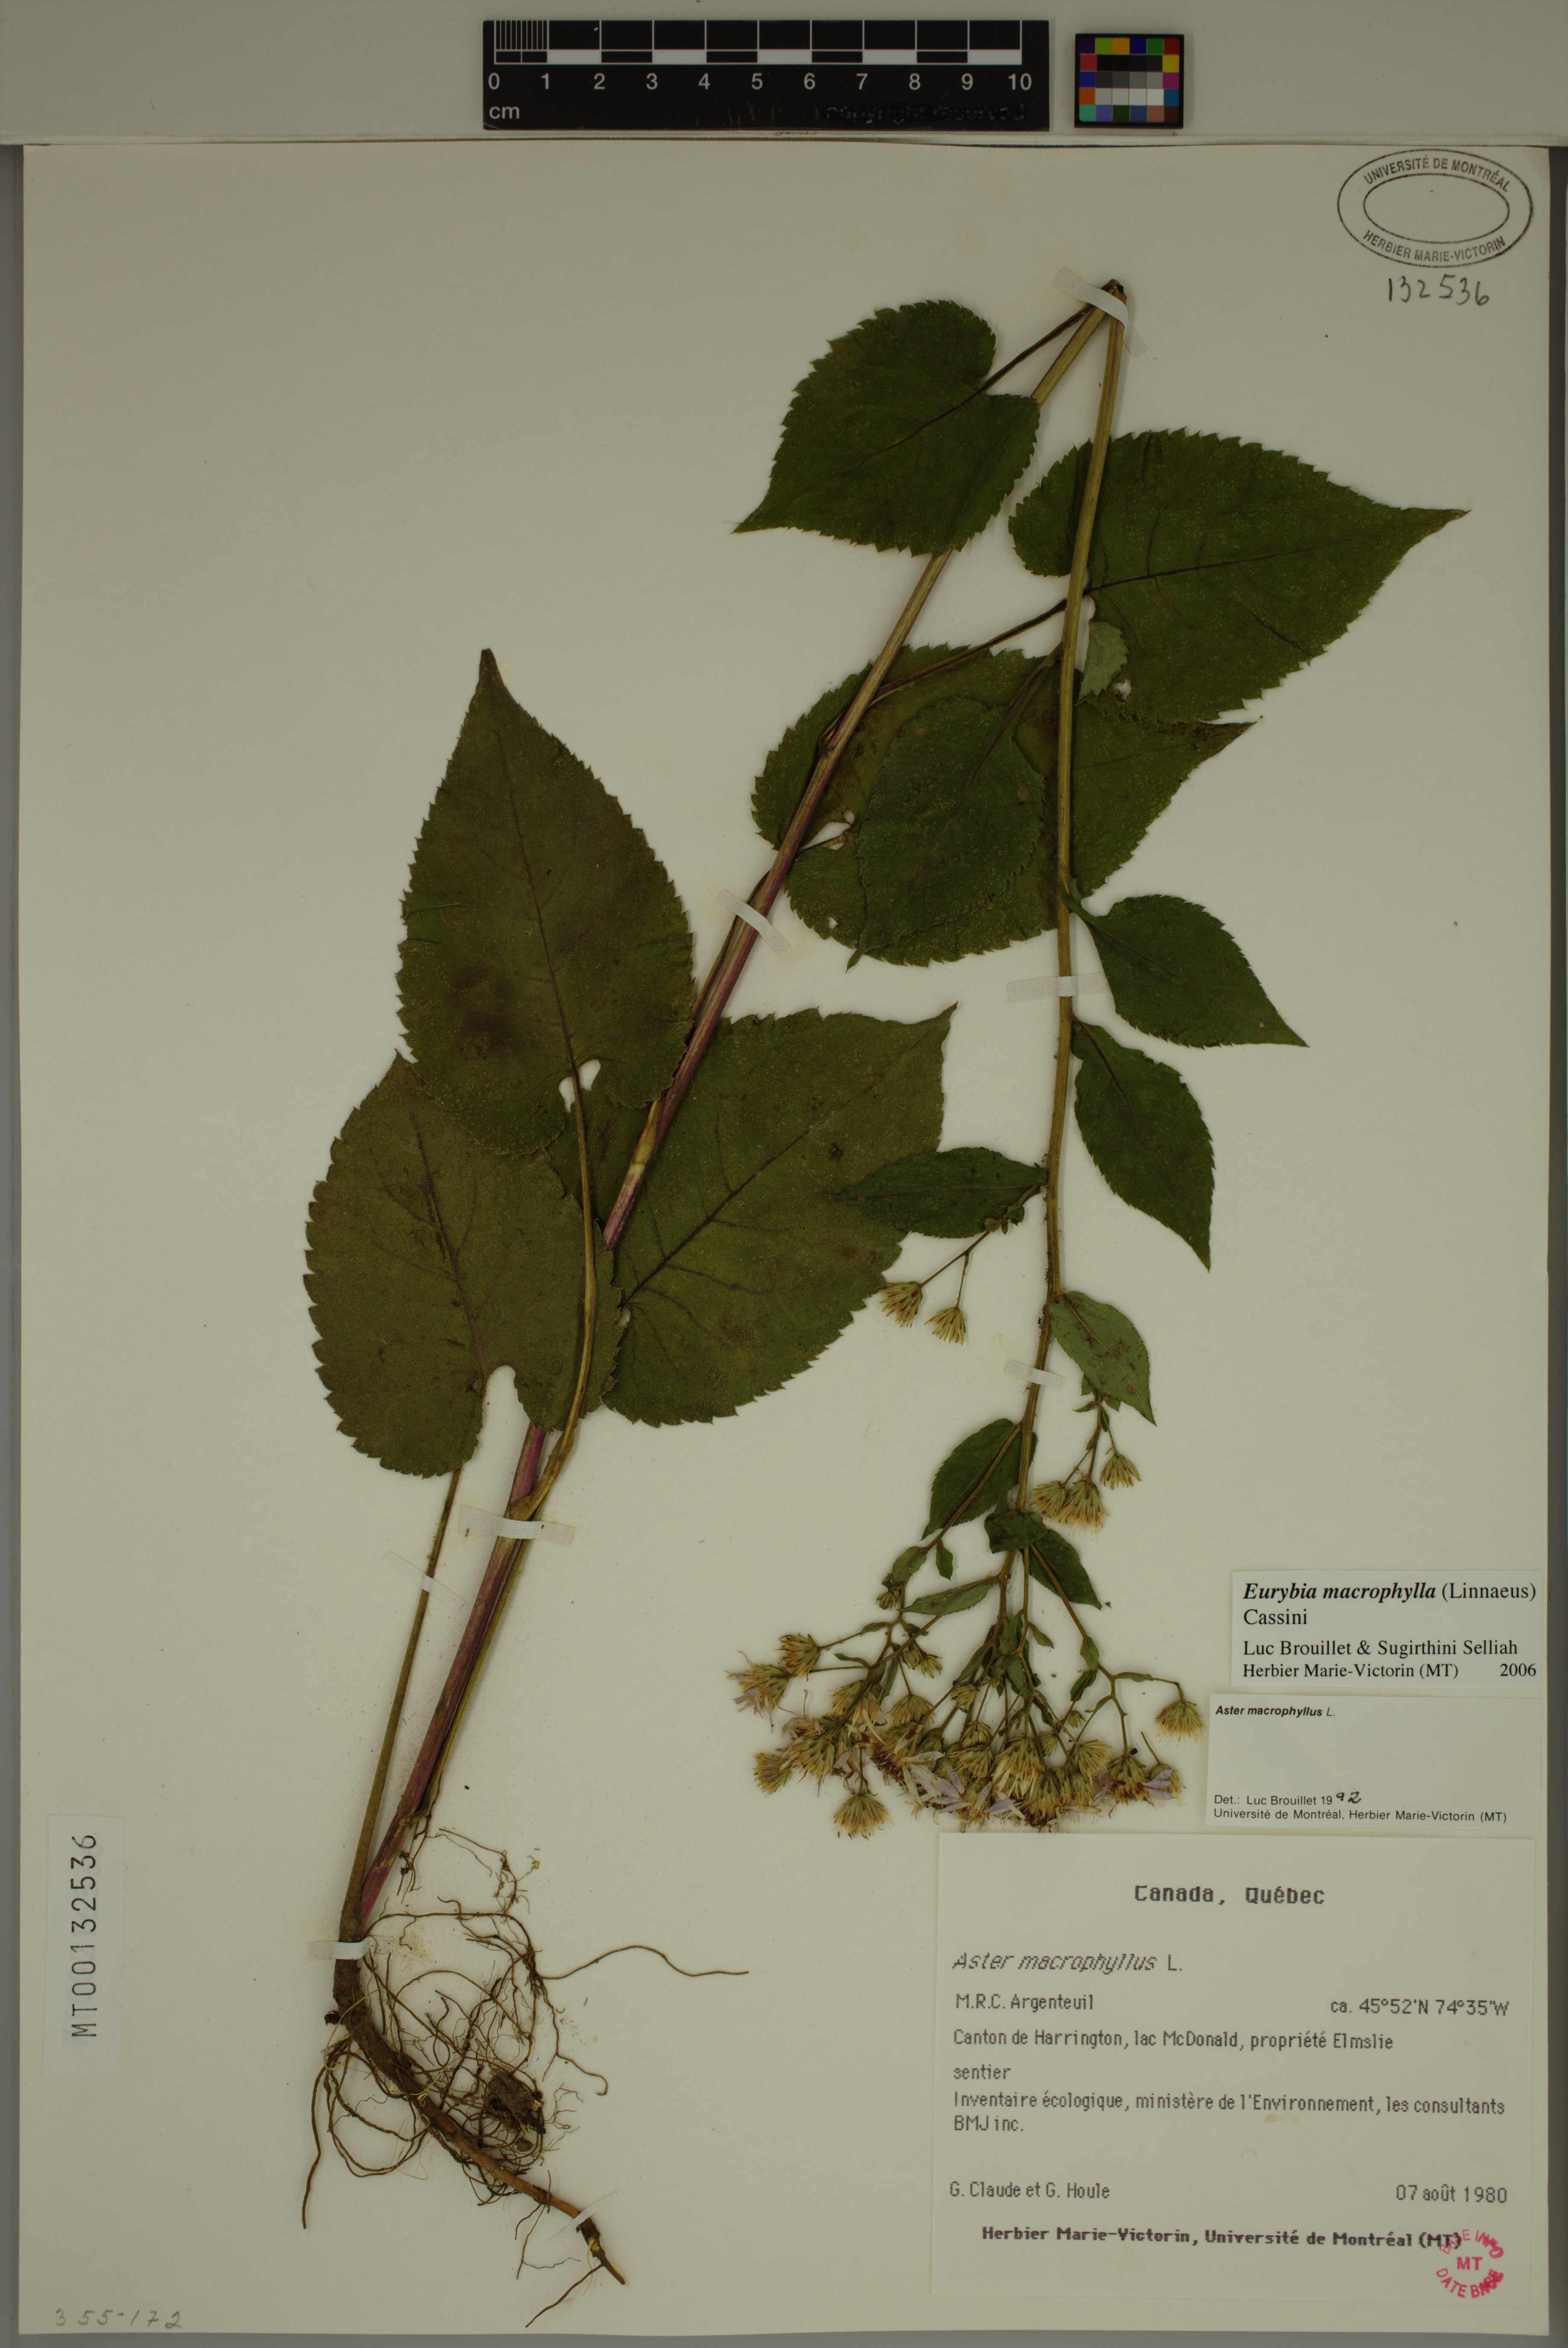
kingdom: Plantae
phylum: Tracheophyta
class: Magnoliopsida
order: Asterales
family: Asteraceae
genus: Eurybia
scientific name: Eurybia macrophylla
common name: Big-leaved aster
